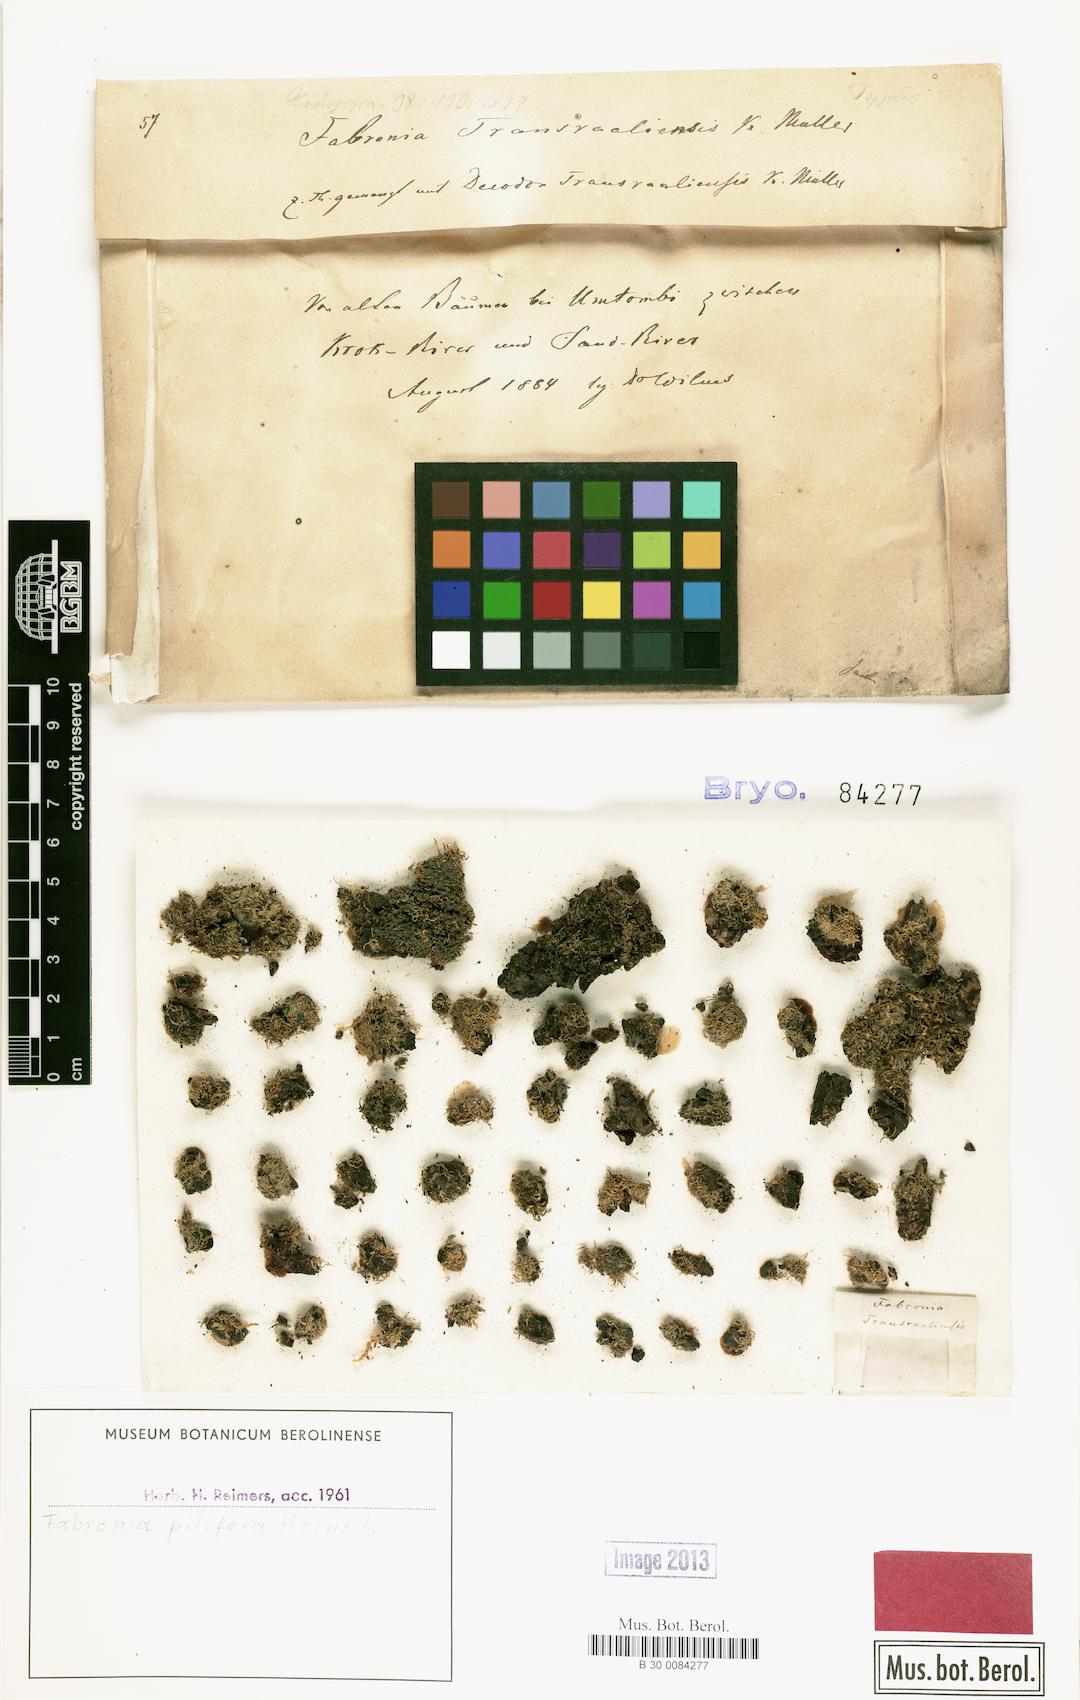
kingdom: Plantae
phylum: Bryophyta
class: Bryopsida
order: Hypnales
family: Fabroniaceae
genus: Fabronia
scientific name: Fabronia pilifera
